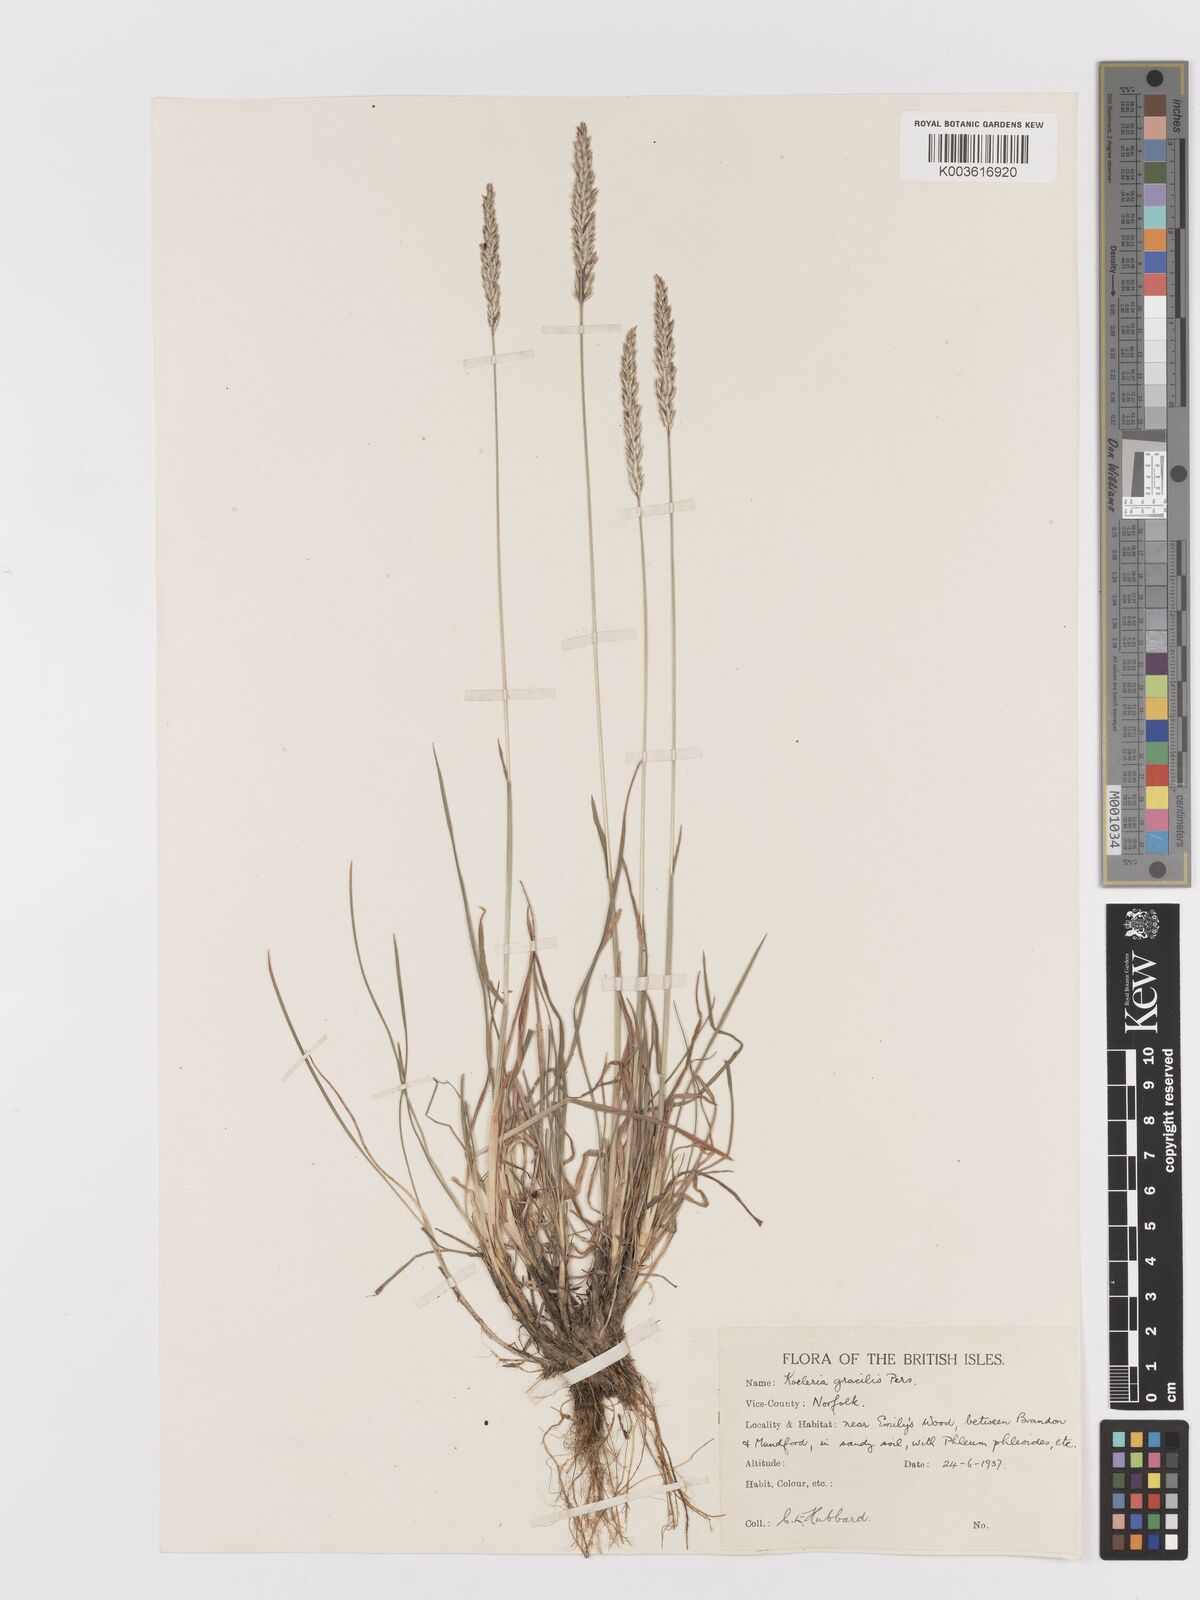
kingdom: Plantae
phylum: Tracheophyta
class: Liliopsida
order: Poales
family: Poaceae
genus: Koeleria
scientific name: Koeleria macrantha
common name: Crested hair-grass
